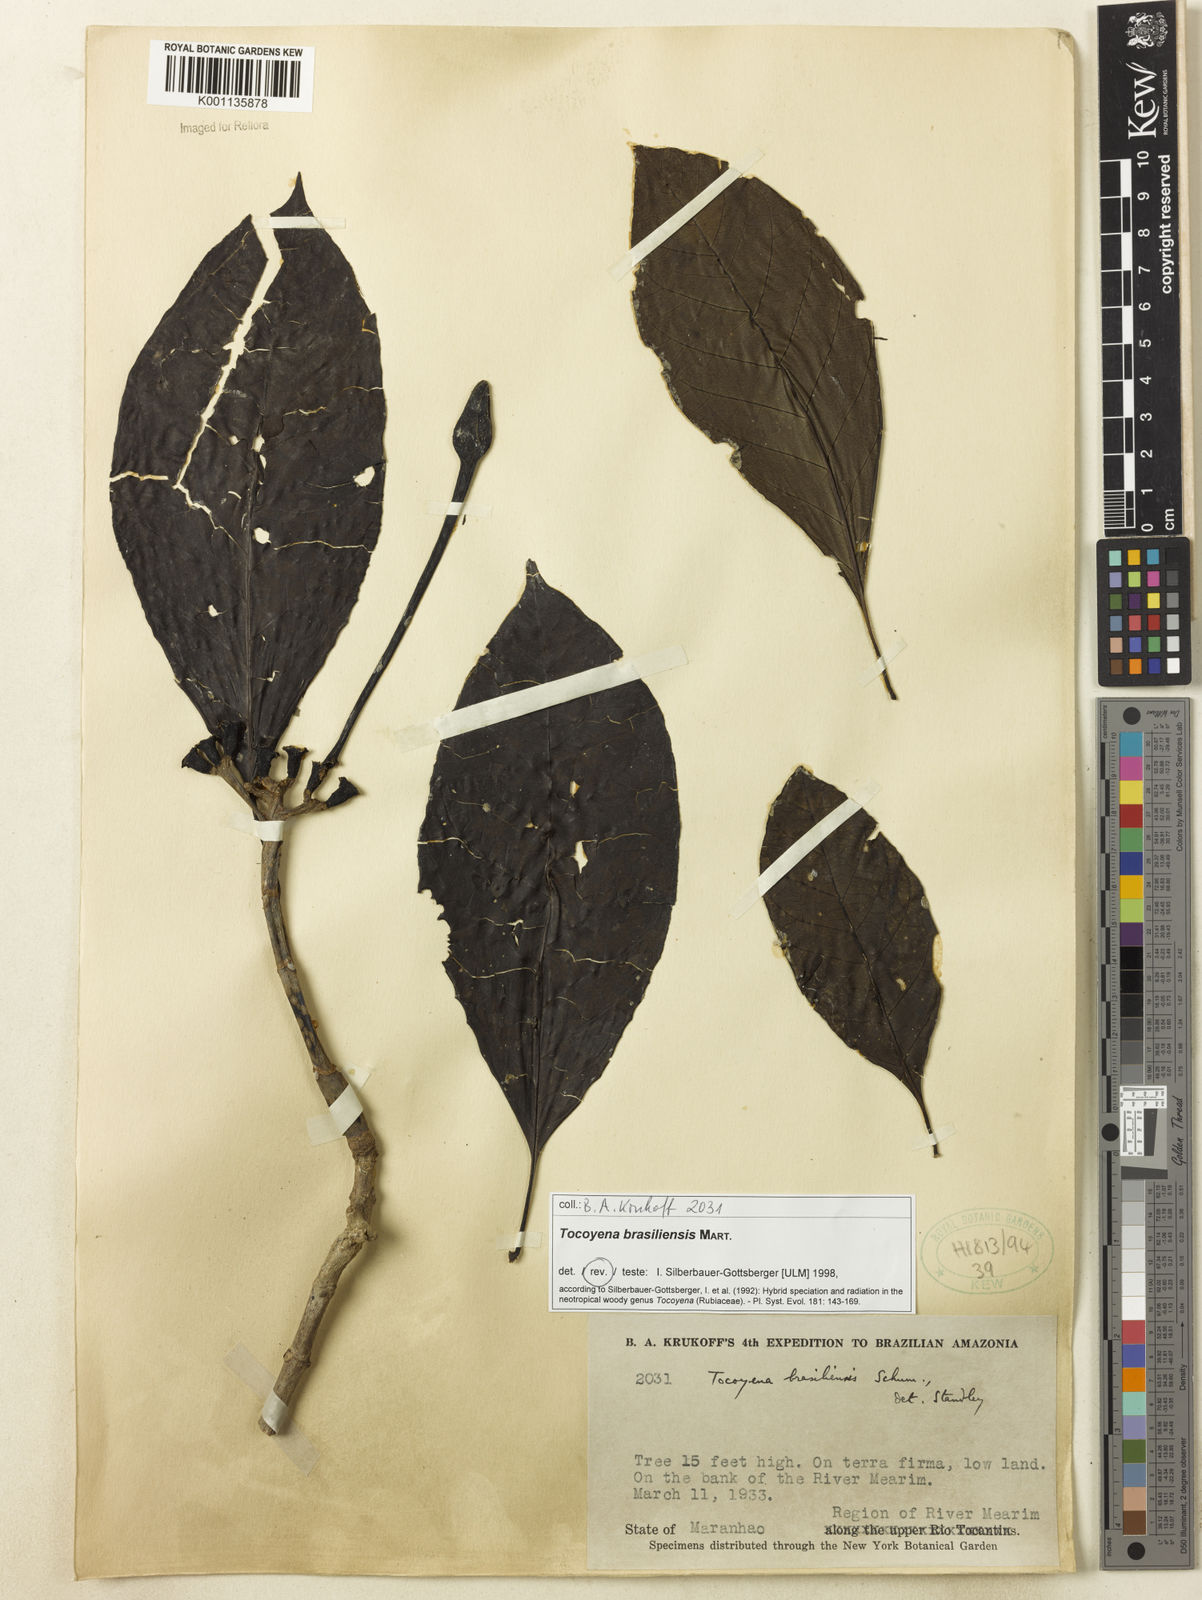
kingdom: Plantae
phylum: Tracheophyta
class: Magnoliopsida
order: Gentianales
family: Rubiaceae
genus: Tocoyena
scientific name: Tocoyena sprucei
